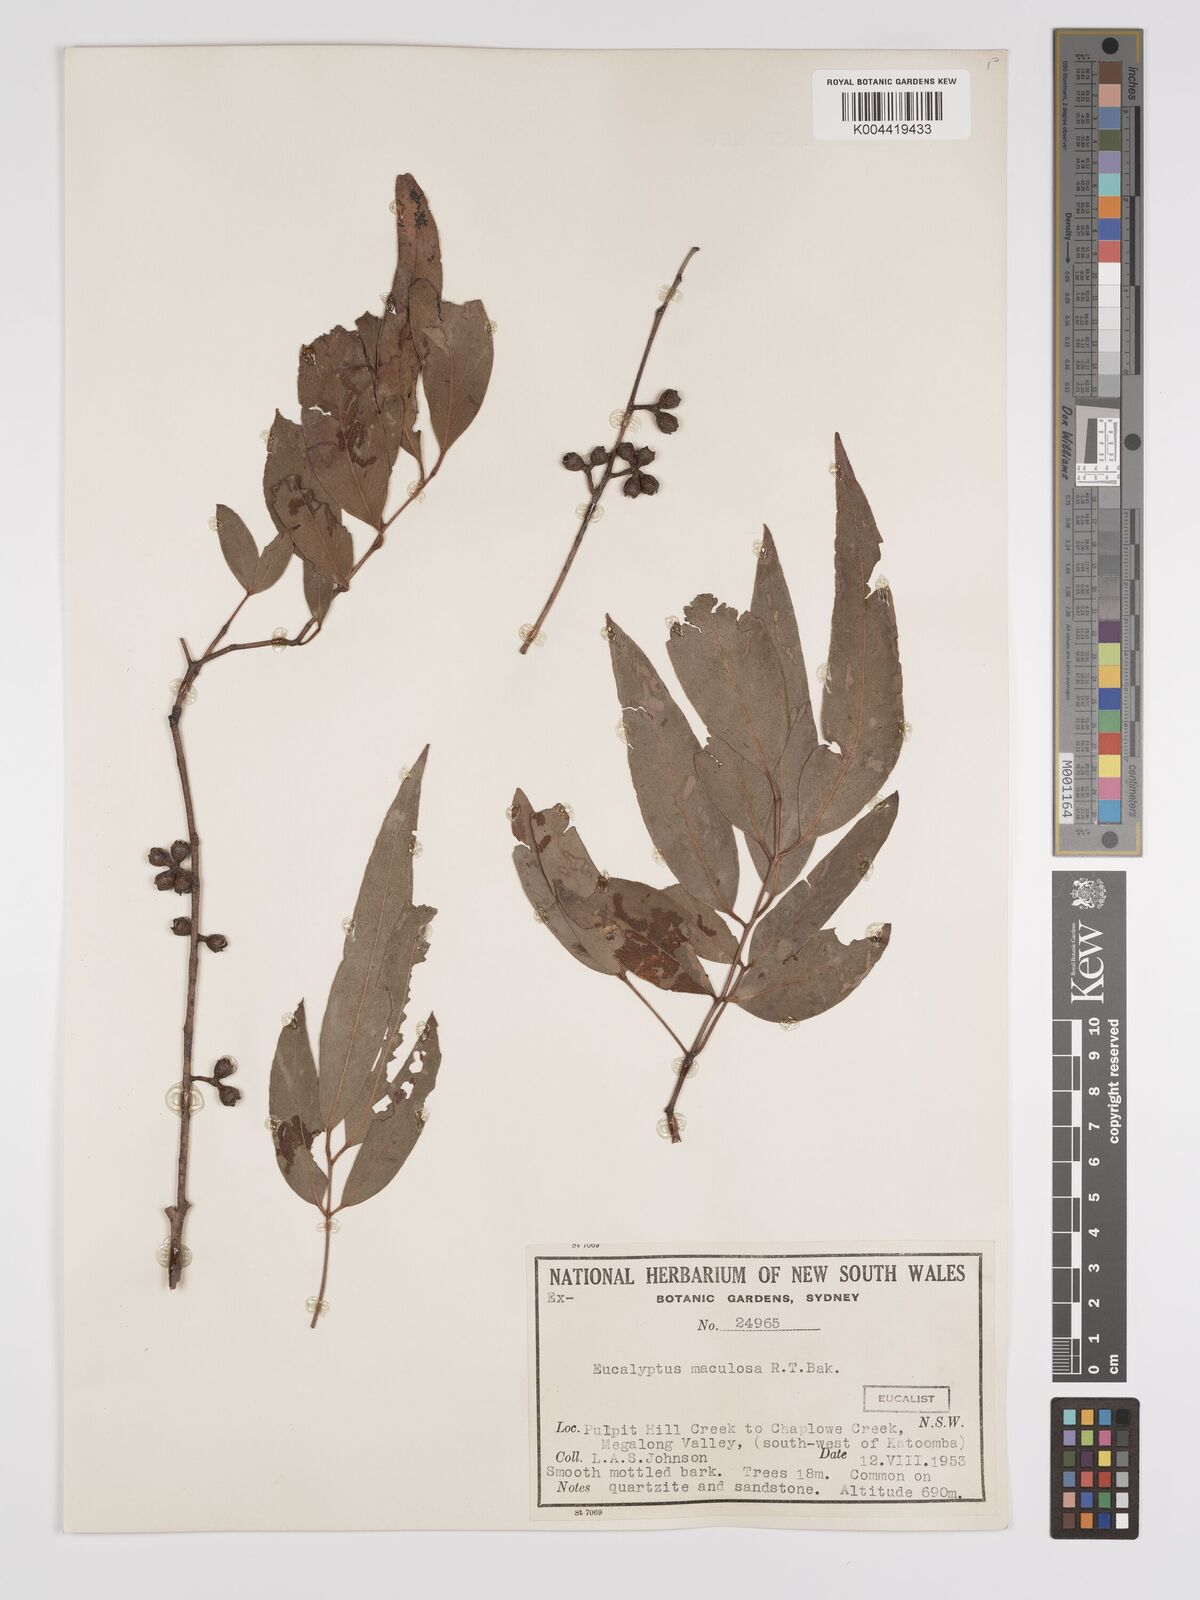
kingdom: Plantae
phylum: Tracheophyta
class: Magnoliopsida
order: Myrtales
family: Myrtaceae
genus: Eucalyptus
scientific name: Eucalyptus mannifera
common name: Manna gum
